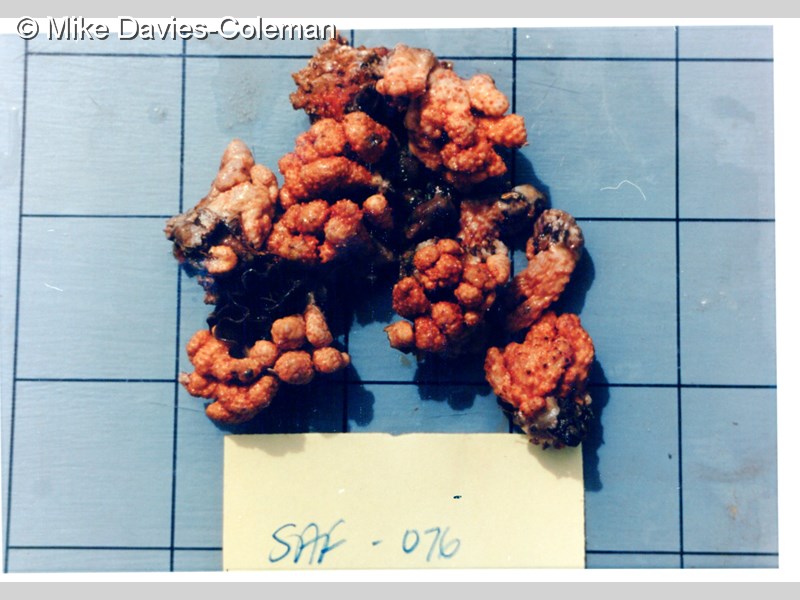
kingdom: Animalia
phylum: Cnidaria
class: Anthozoa
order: Malacalcyonacea
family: Alcyoniidae
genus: Alcyonium
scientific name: Alcyonium fauri
